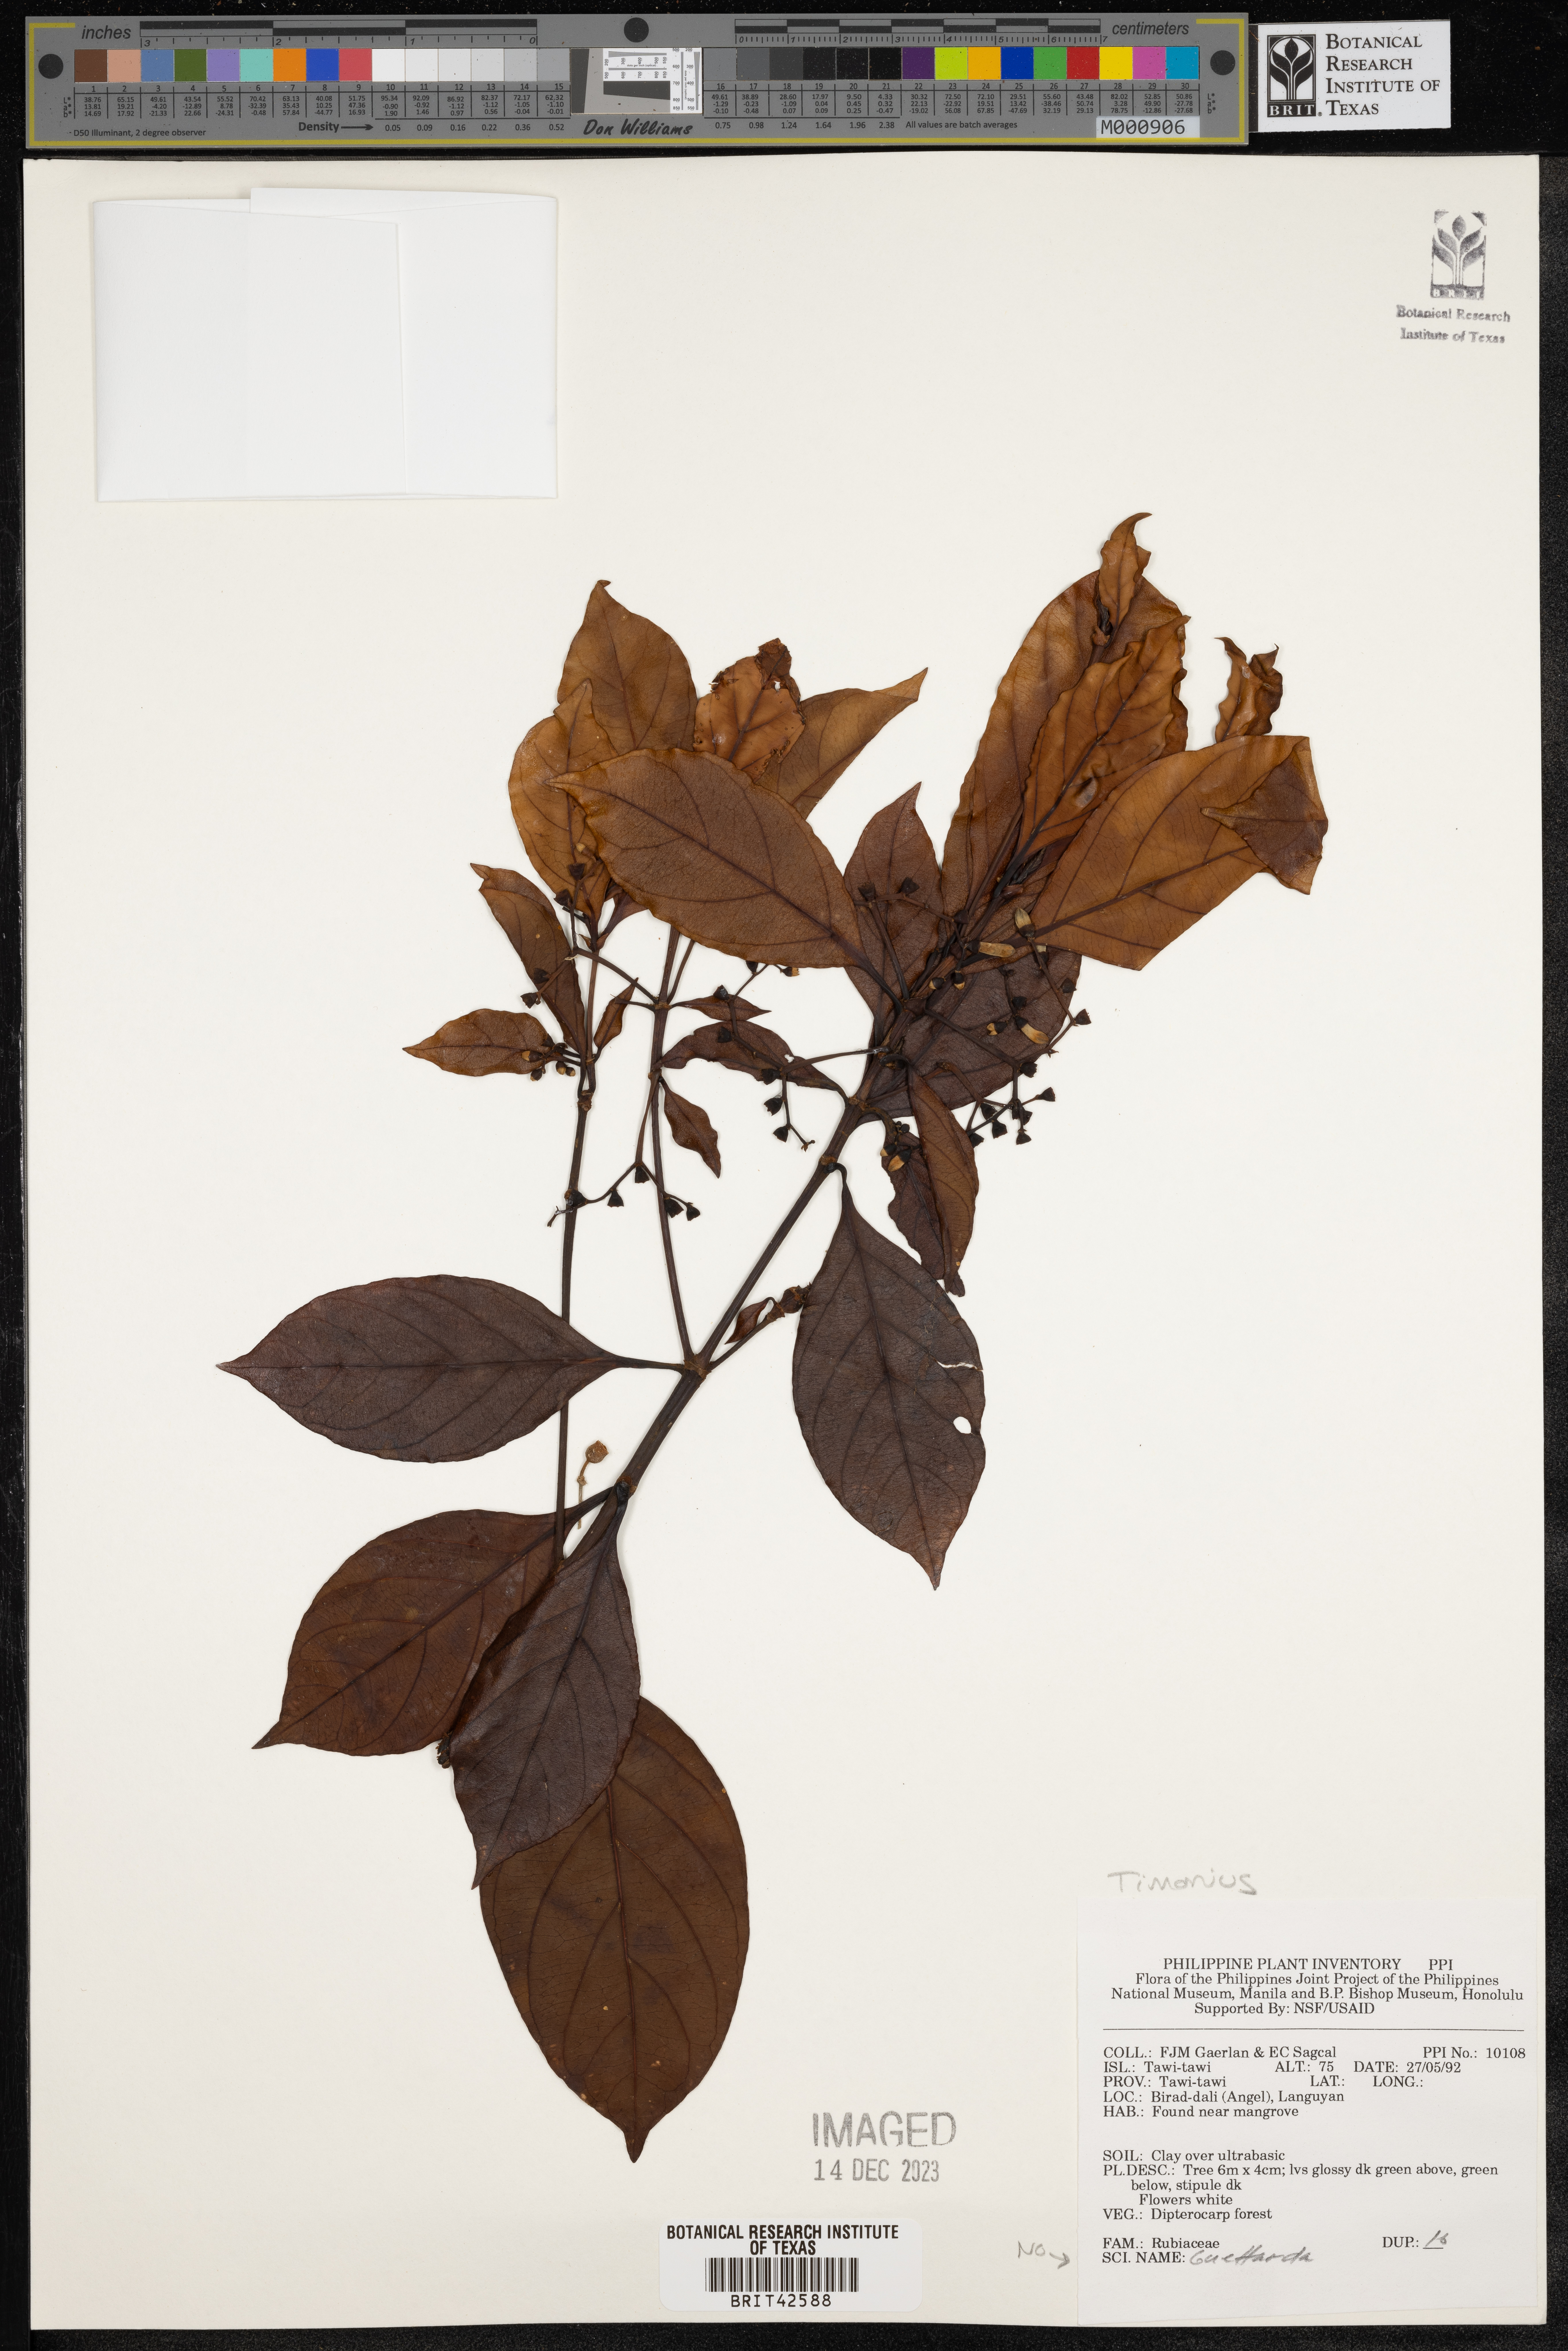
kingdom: Plantae
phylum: Tracheophyta
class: Magnoliopsida
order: Gentianales
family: Rubiaceae
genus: Timonius
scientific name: Timonius
